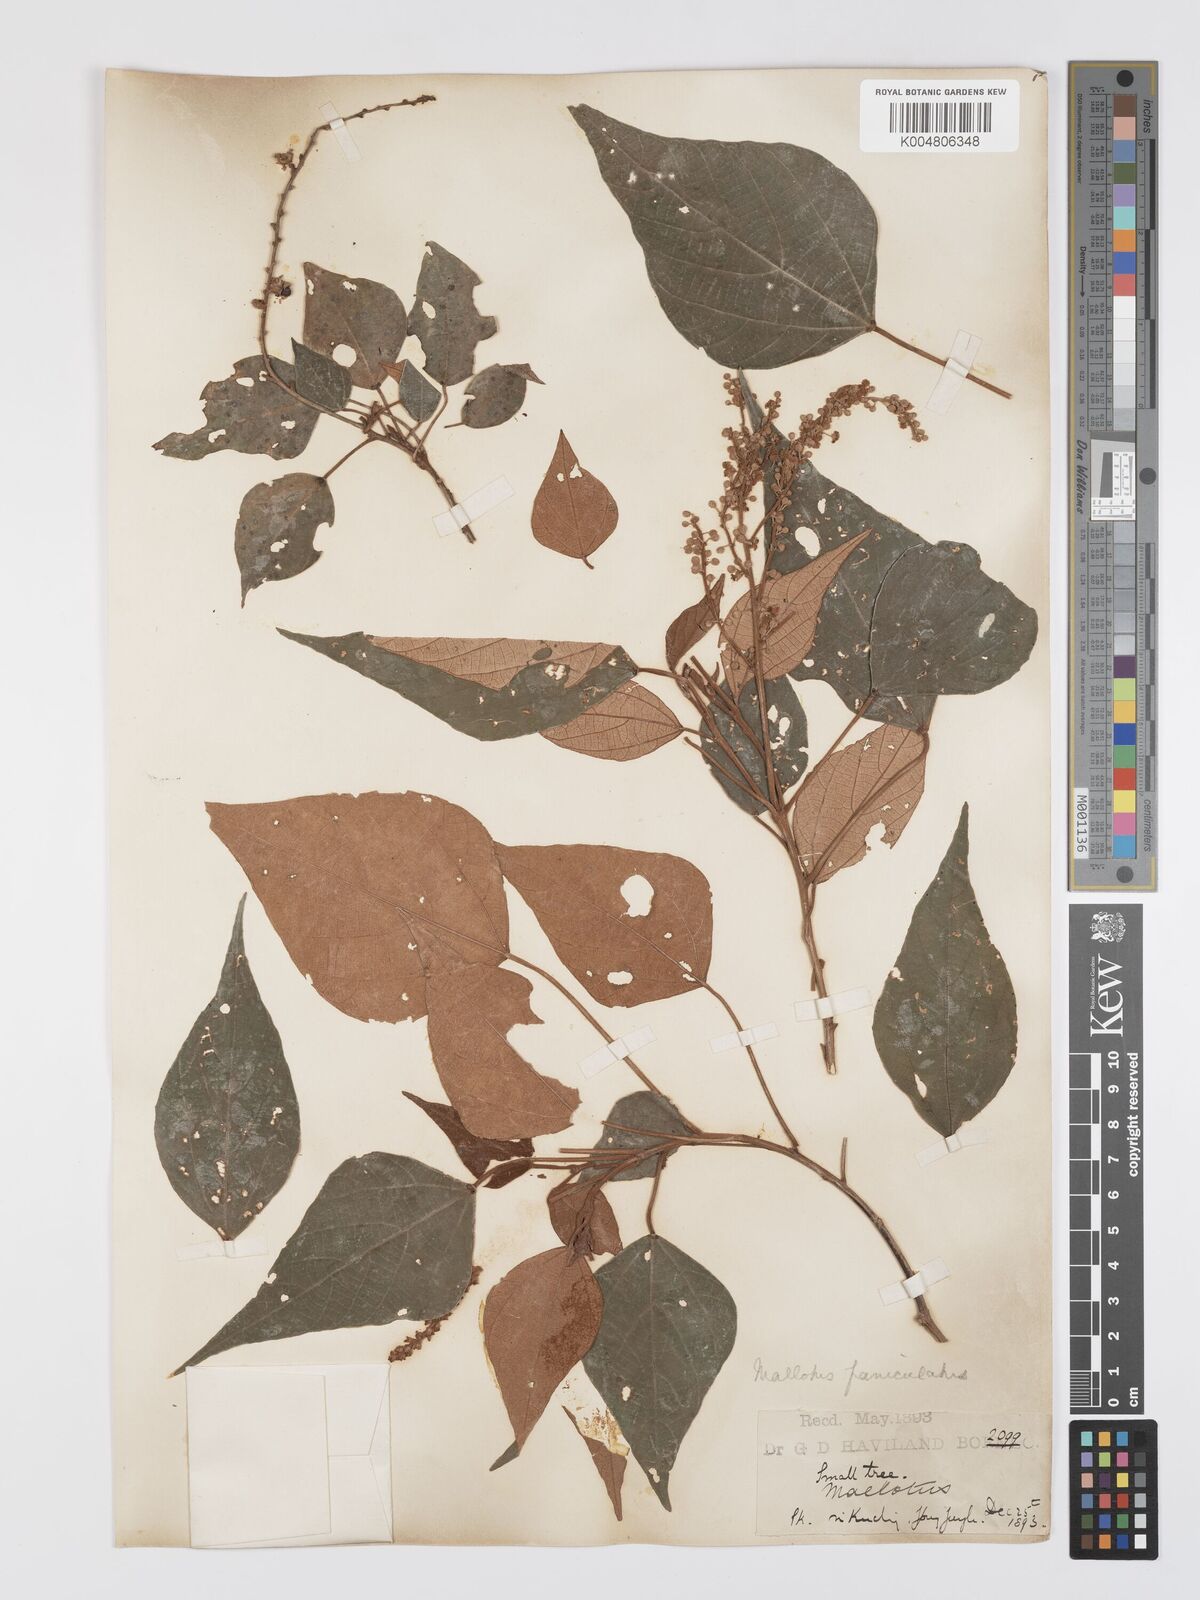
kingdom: Plantae
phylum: Tracheophyta
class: Magnoliopsida
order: Malpighiales
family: Euphorbiaceae
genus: Mallotus
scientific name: Mallotus paniculatus
